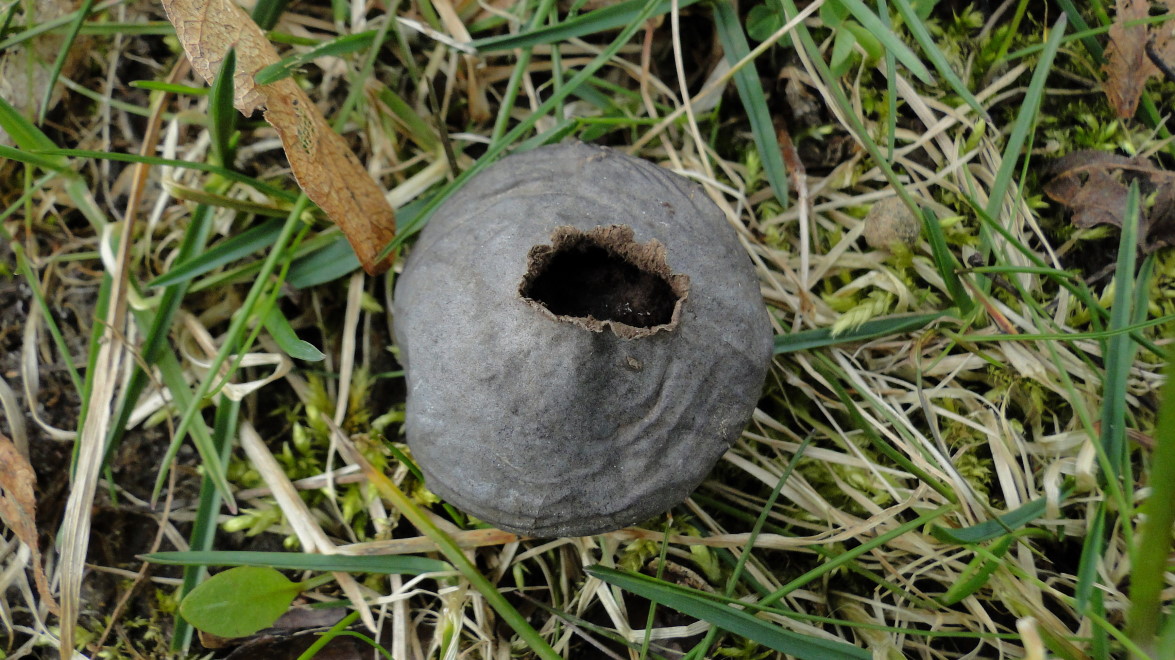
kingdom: Fungi
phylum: Basidiomycota
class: Agaricomycetes
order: Agaricales
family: Lycoperdaceae
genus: Bovista
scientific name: Bovista plumbea
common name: blygrå bovist
